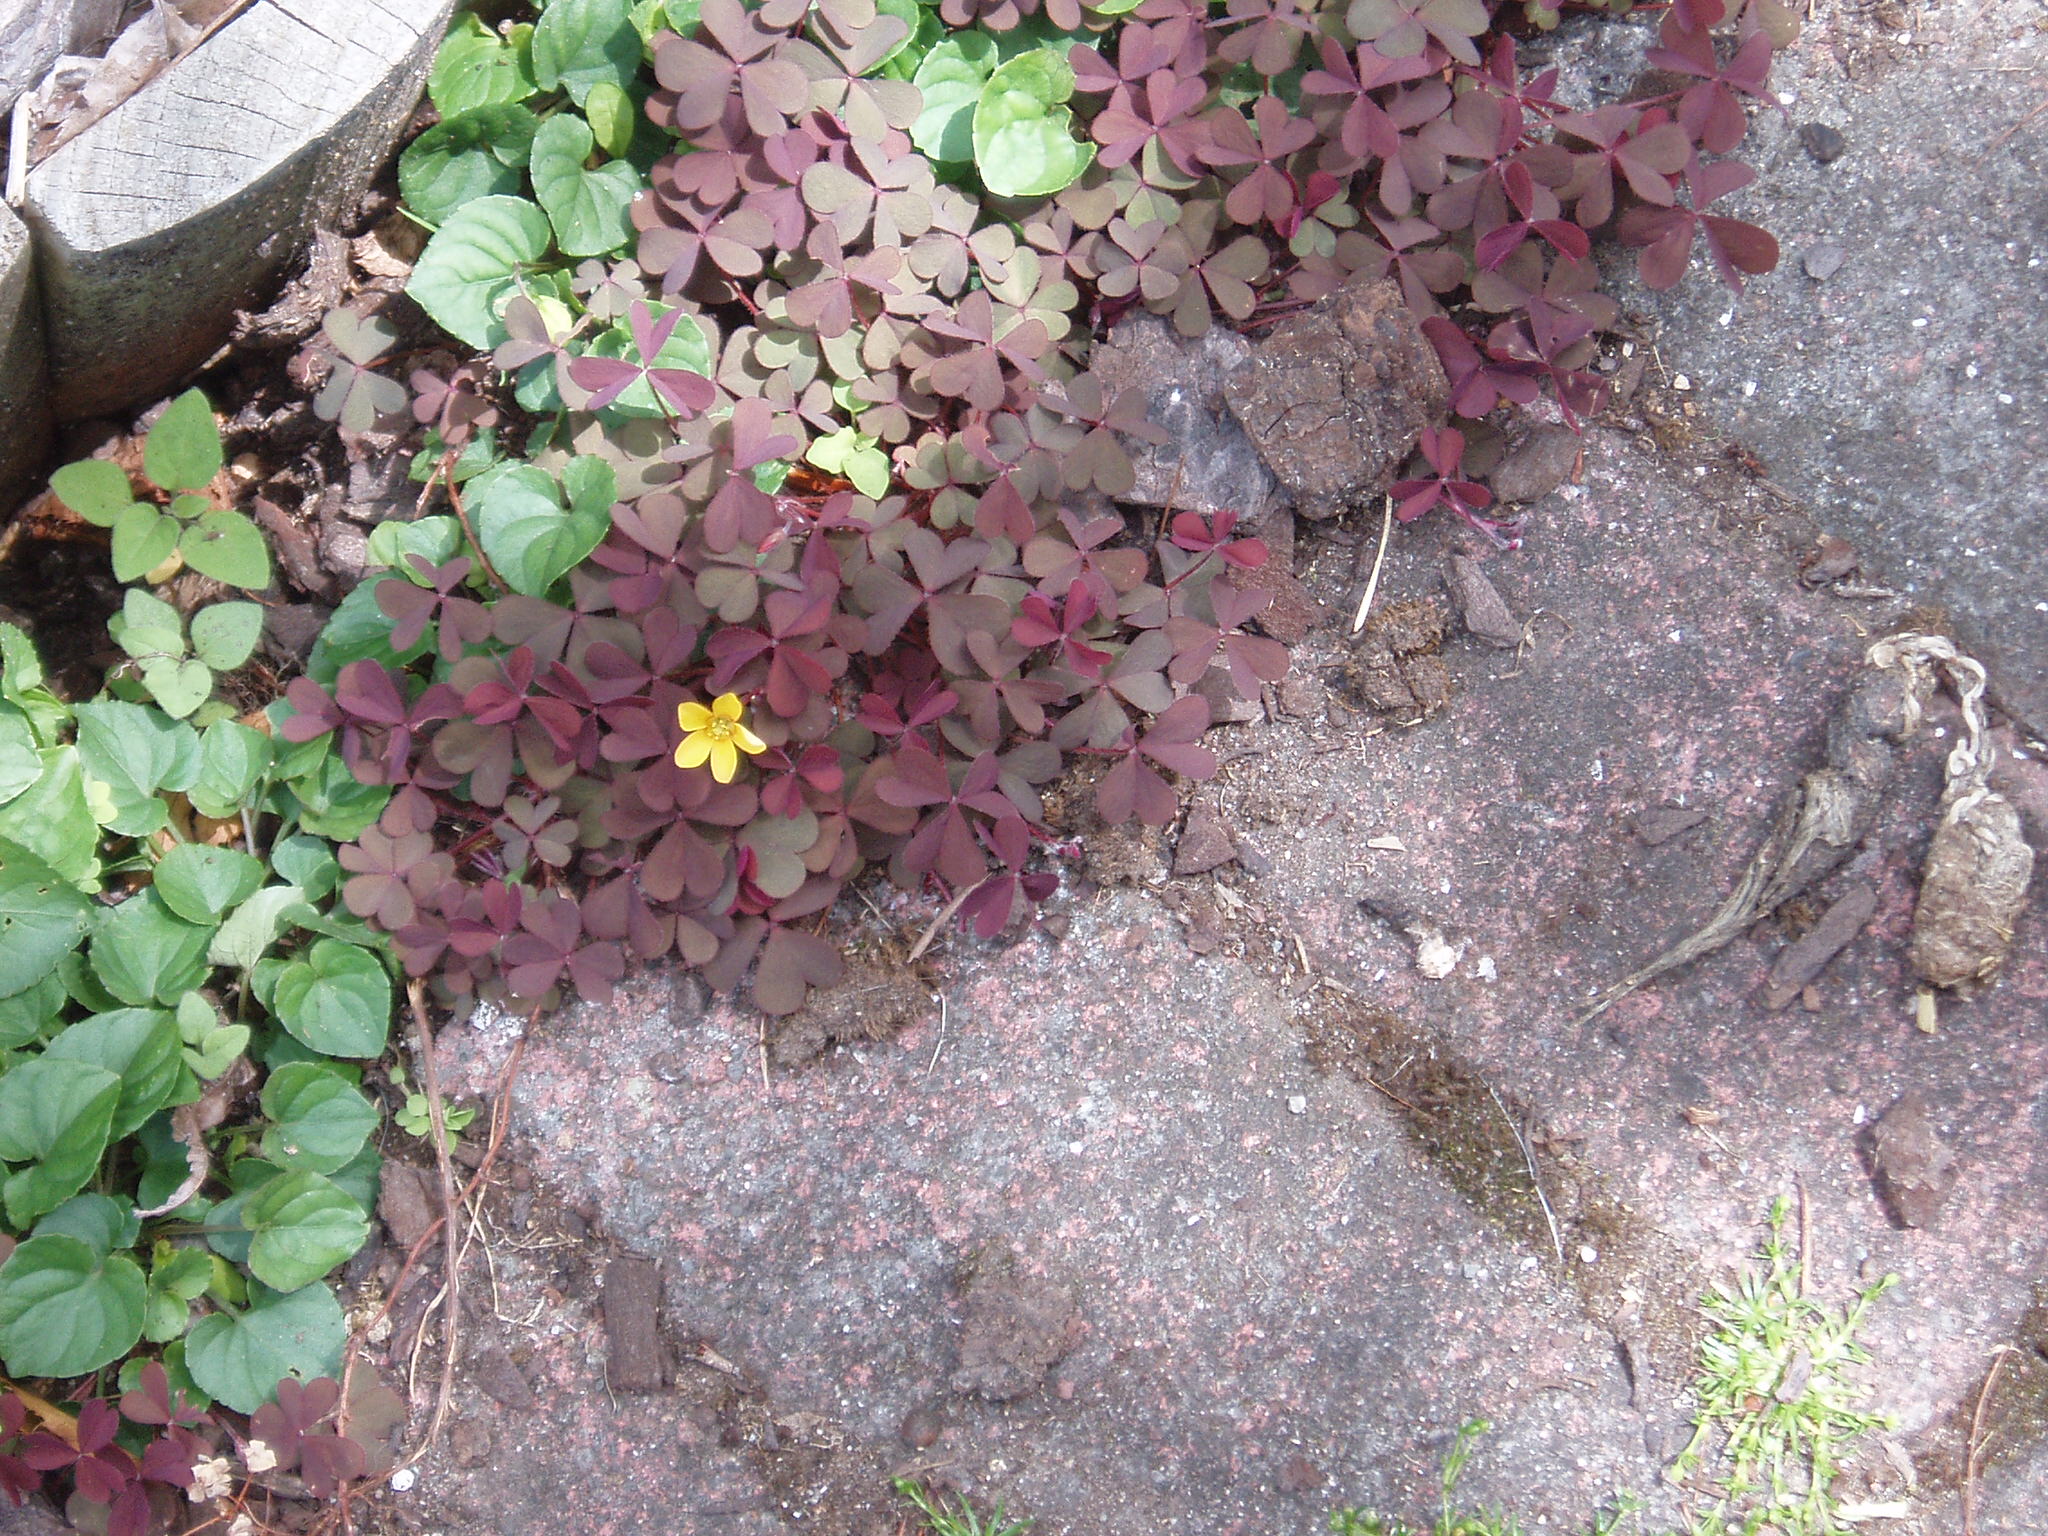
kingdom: Plantae
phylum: Tracheophyta
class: Magnoliopsida
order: Oxalidales
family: Oxalidaceae
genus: Oxalis
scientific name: Oxalis corniculata
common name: Procumbent yellow-sorrel
